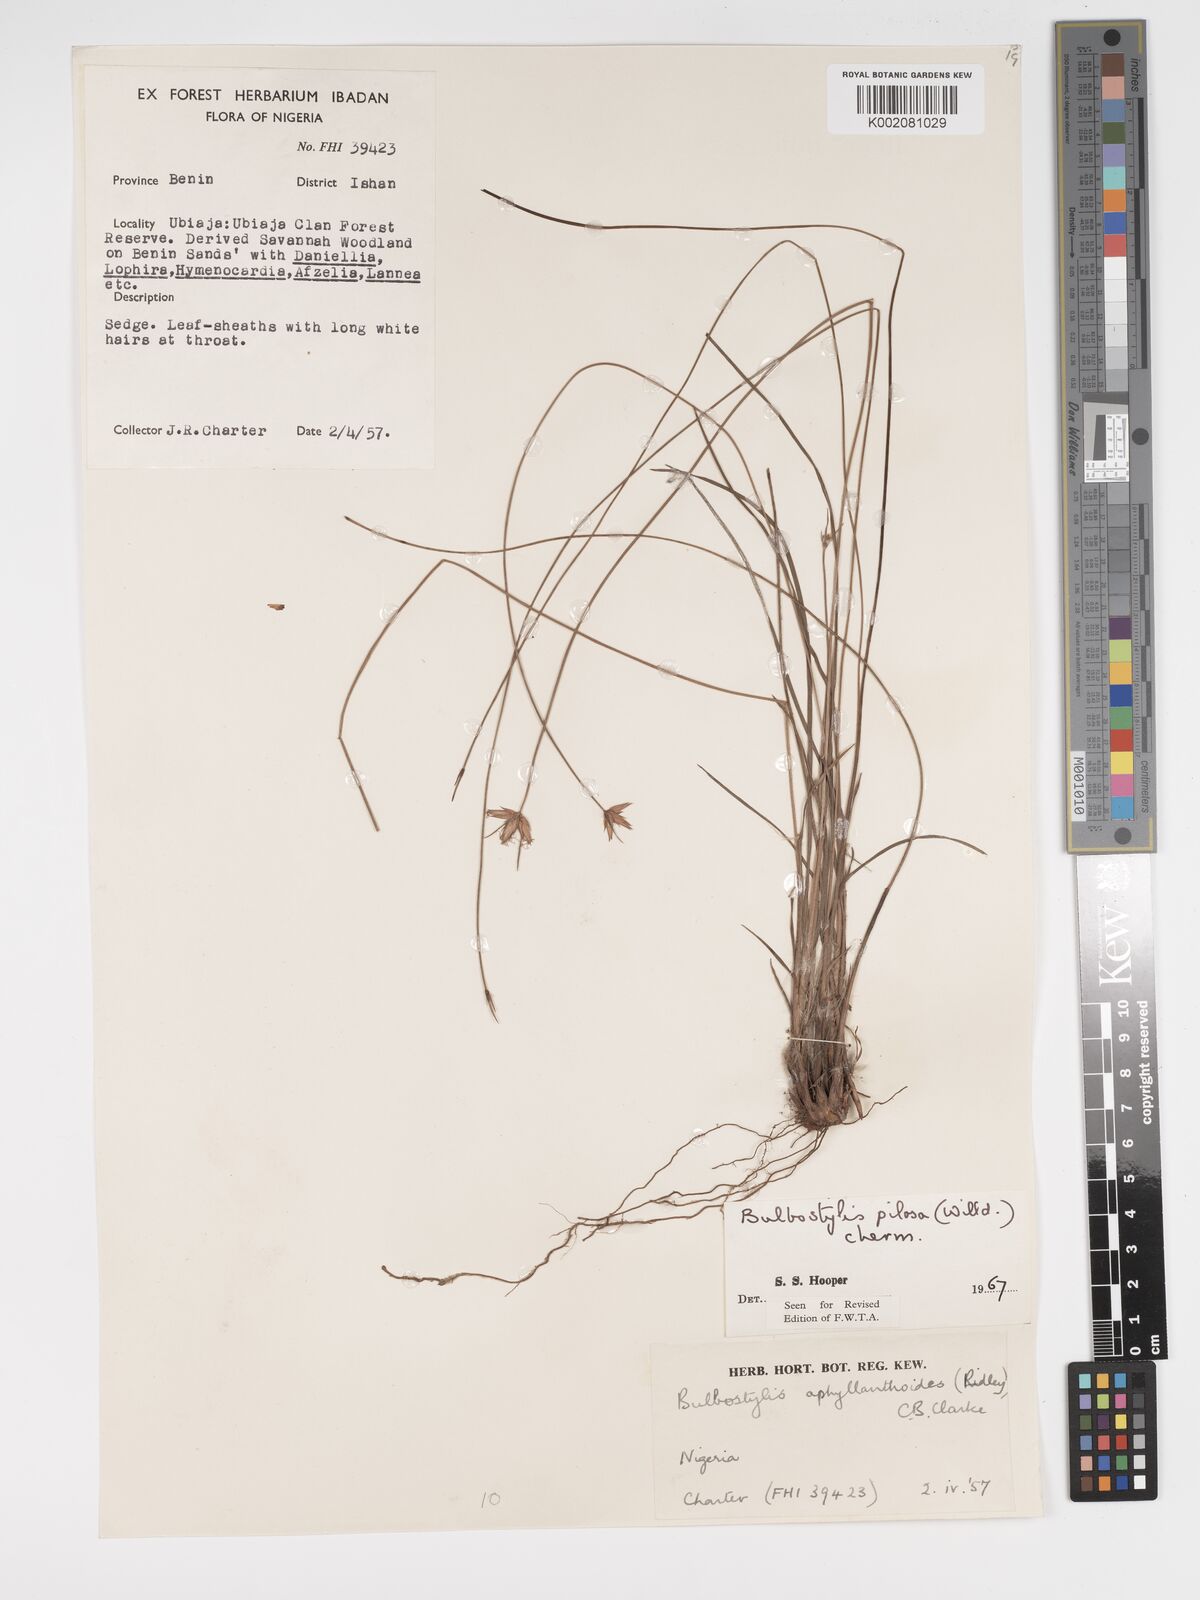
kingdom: Plantae
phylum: Tracheophyta
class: Liliopsida
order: Poales
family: Cyperaceae
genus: Bulbostylis
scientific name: Bulbostylis pilosa
